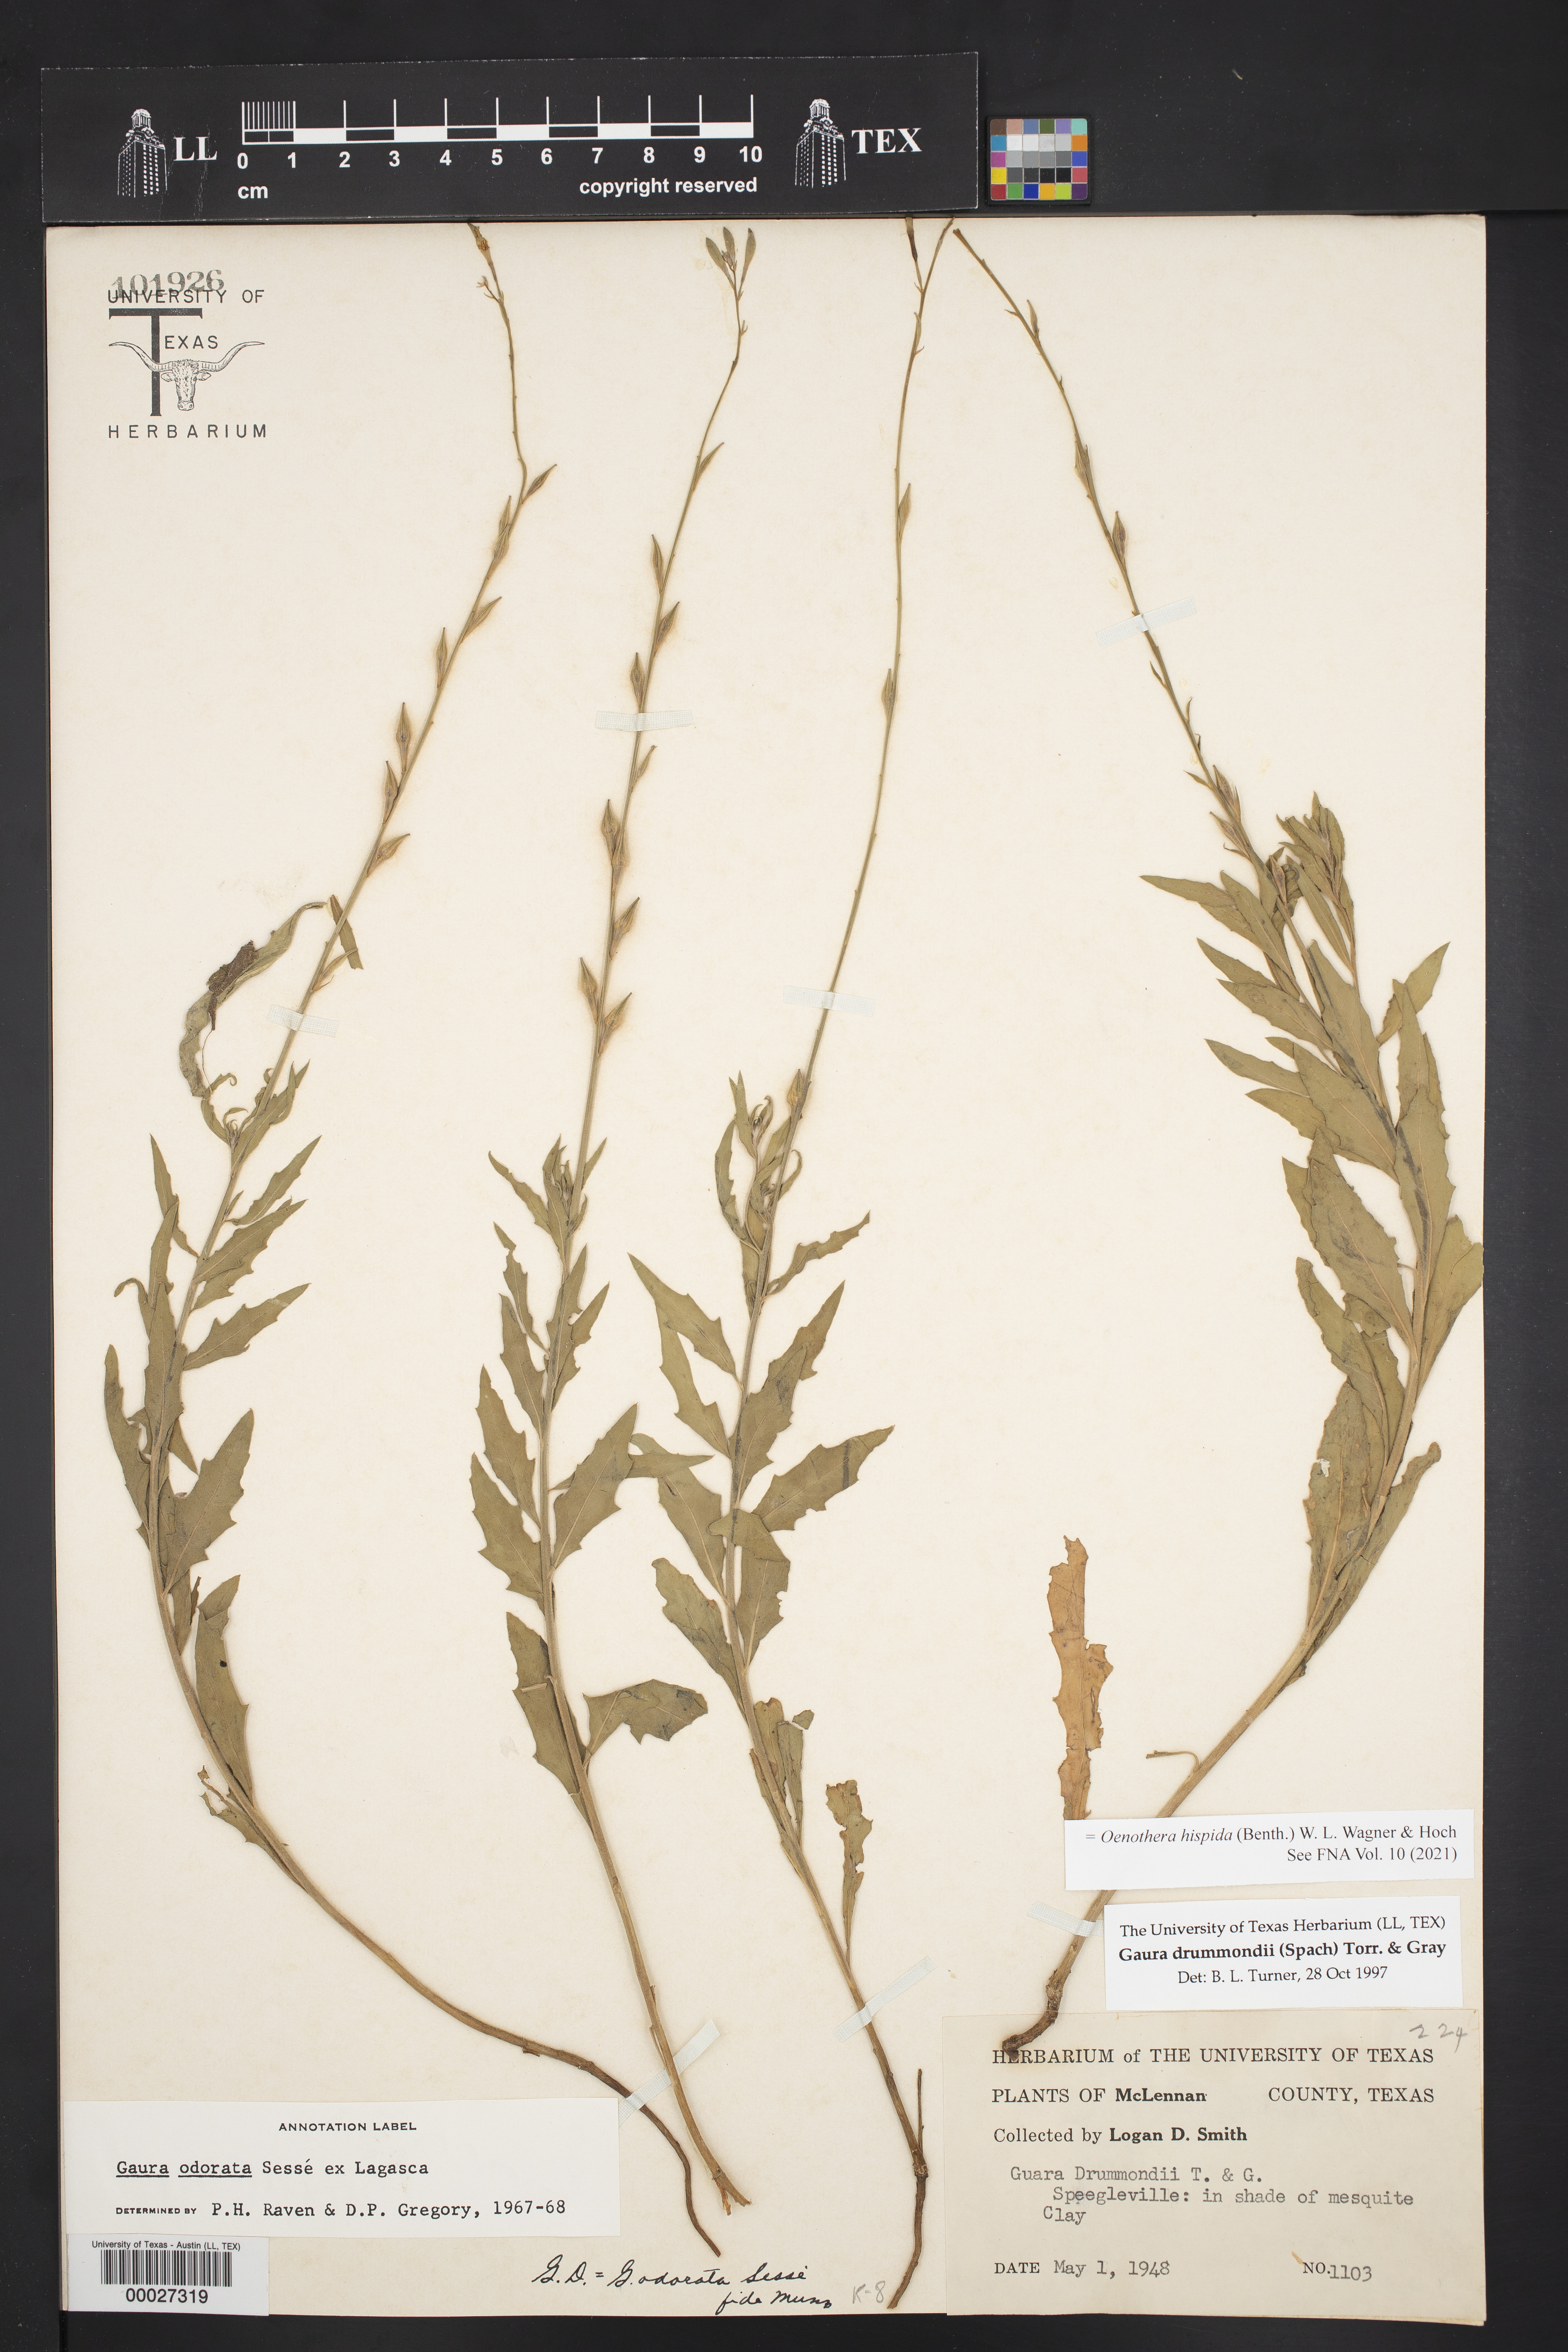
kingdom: Plantae
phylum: Tracheophyta
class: Magnoliopsida
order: Myrtales
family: Onagraceae
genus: Oenothera
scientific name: Oenothera hispida
